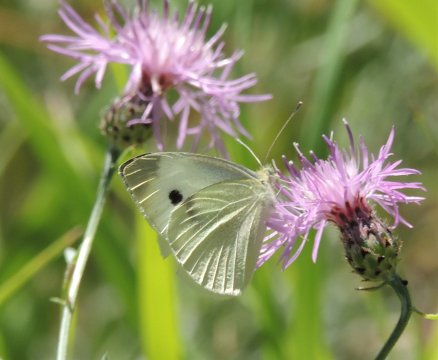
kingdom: Animalia
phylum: Arthropoda
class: Insecta
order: Lepidoptera
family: Pieridae
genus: Pieris
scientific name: Pieris rapae
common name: Cabbage White
